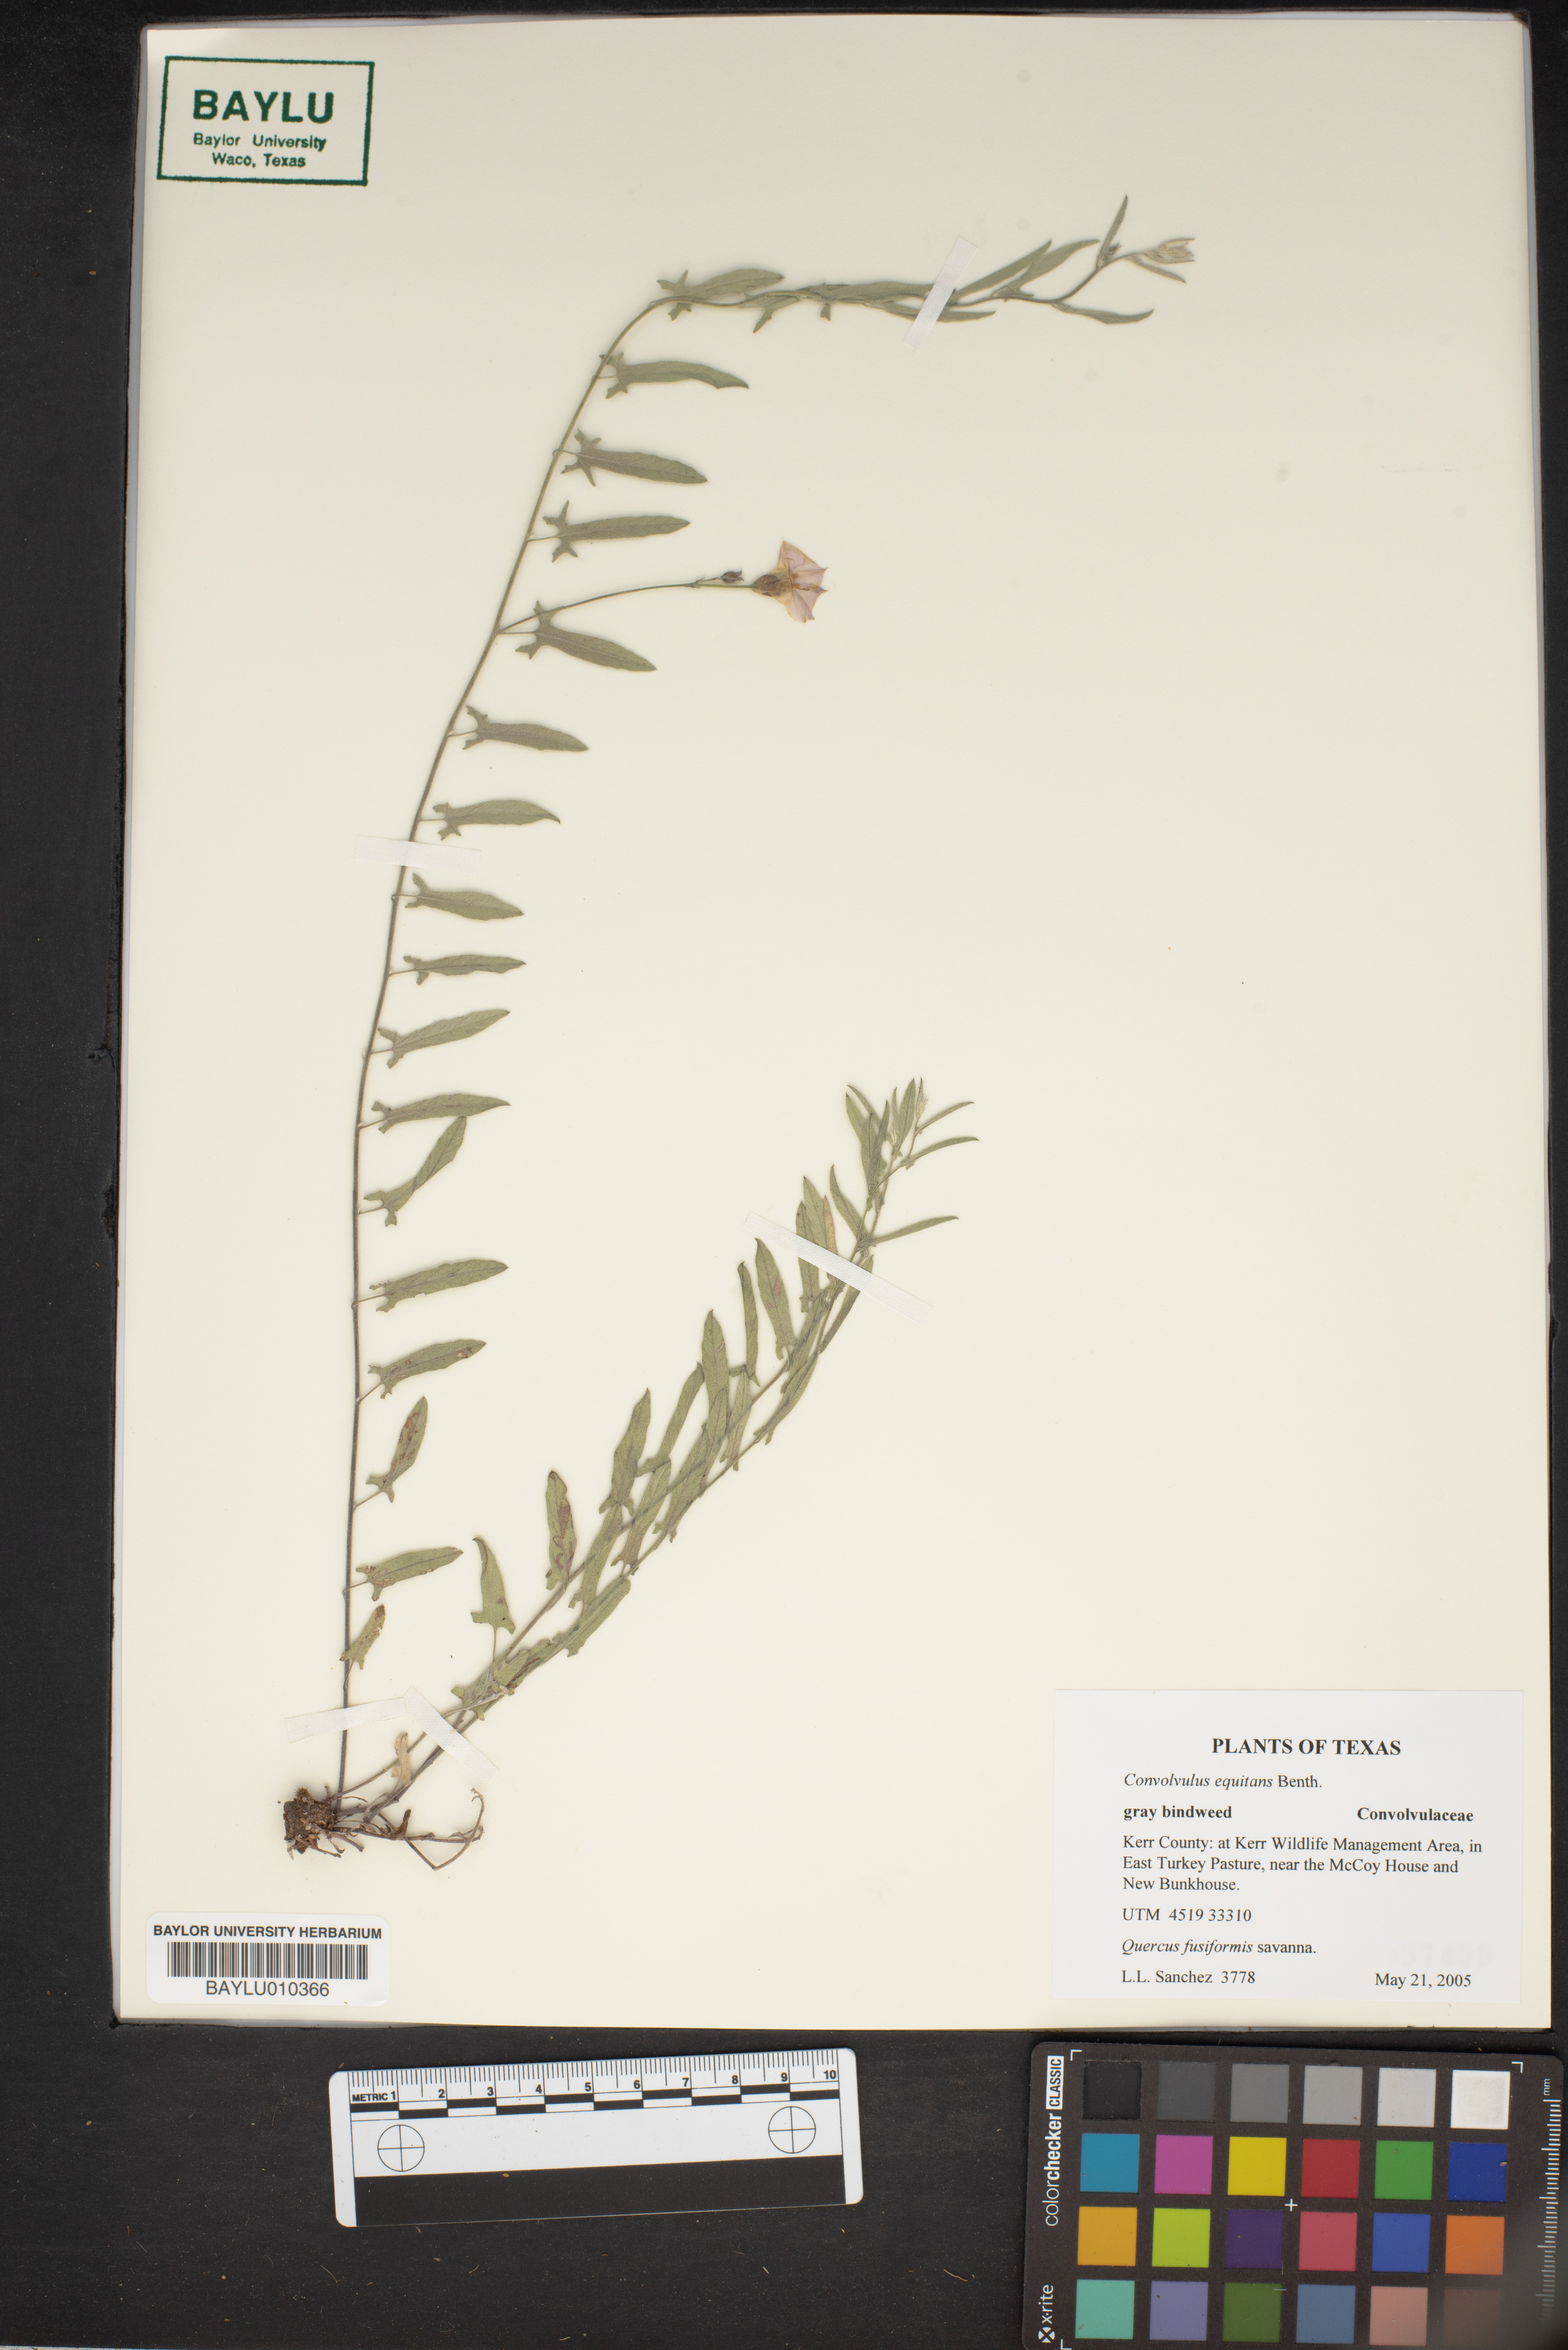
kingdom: Plantae
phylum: Tracheophyta
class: Magnoliopsida
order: Solanales
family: Convolvulaceae
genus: Convolvulus
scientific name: Convolvulus equitans
